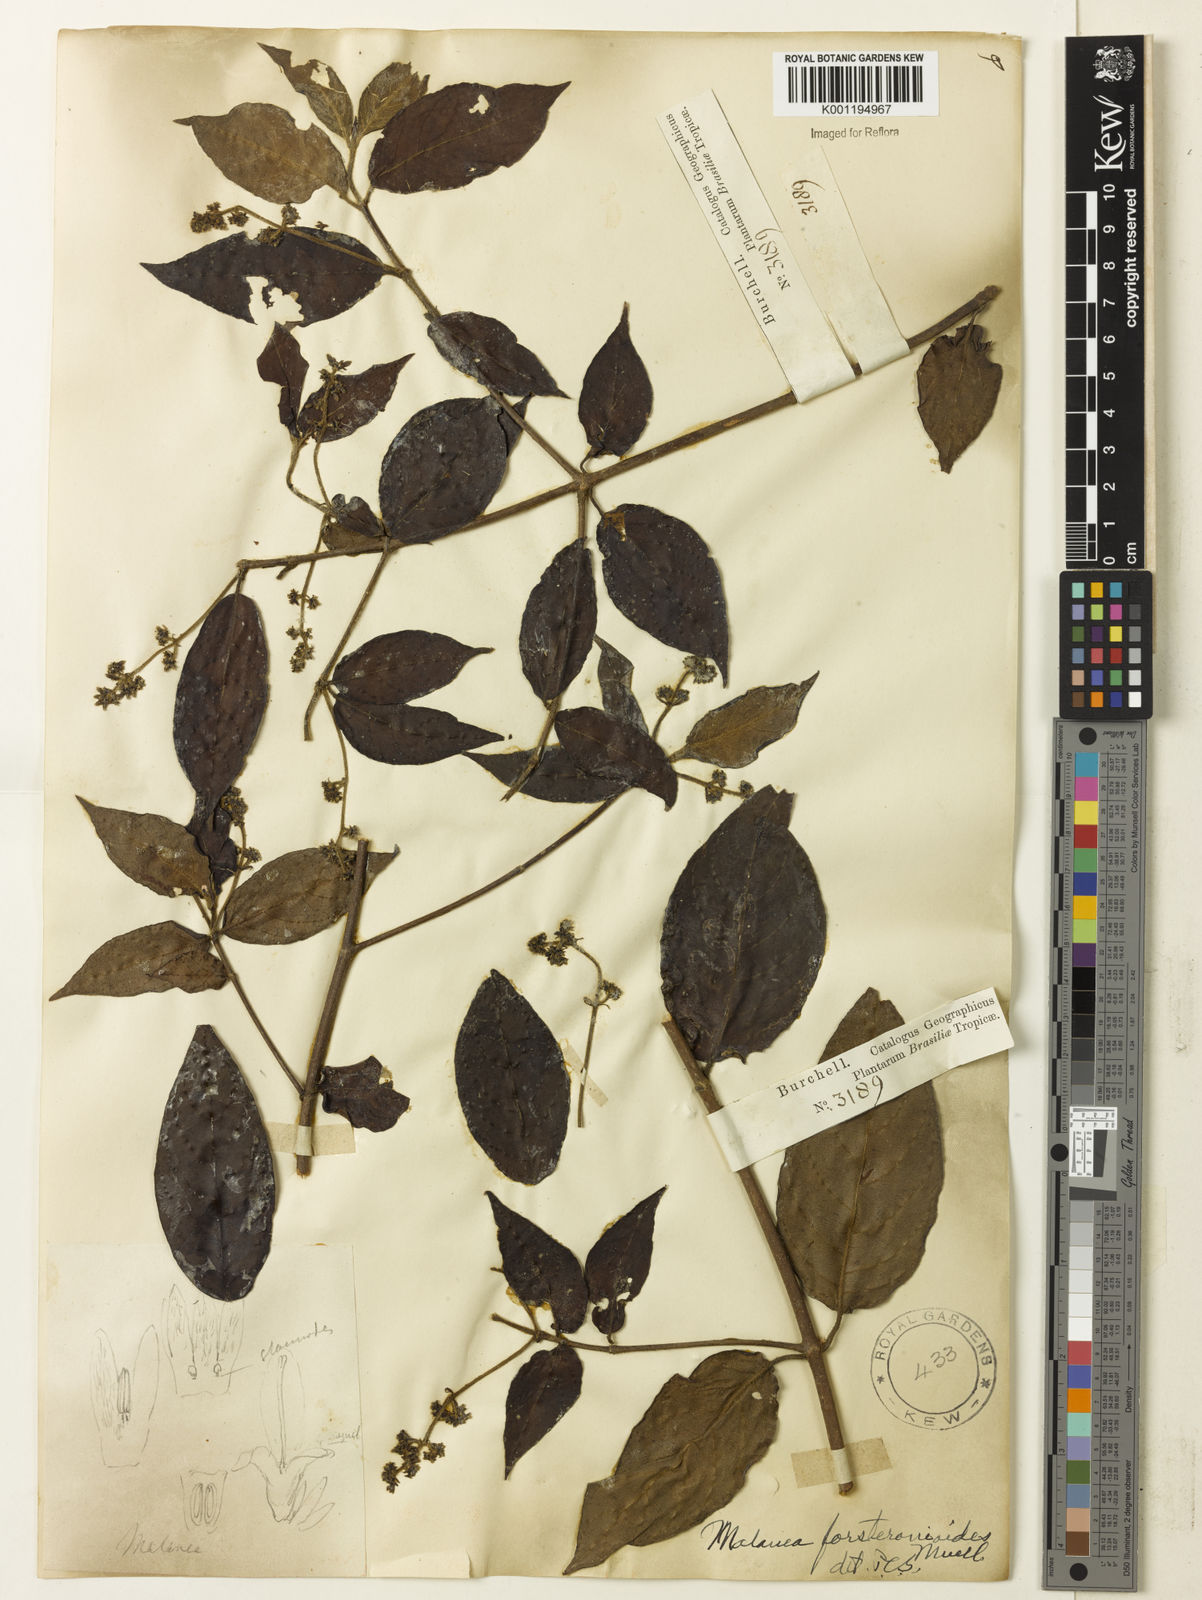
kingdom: Plantae
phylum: Tracheophyta
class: Magnoliopsida
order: Gentianales
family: Rubiaceae
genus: Malanea
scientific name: Malanea
